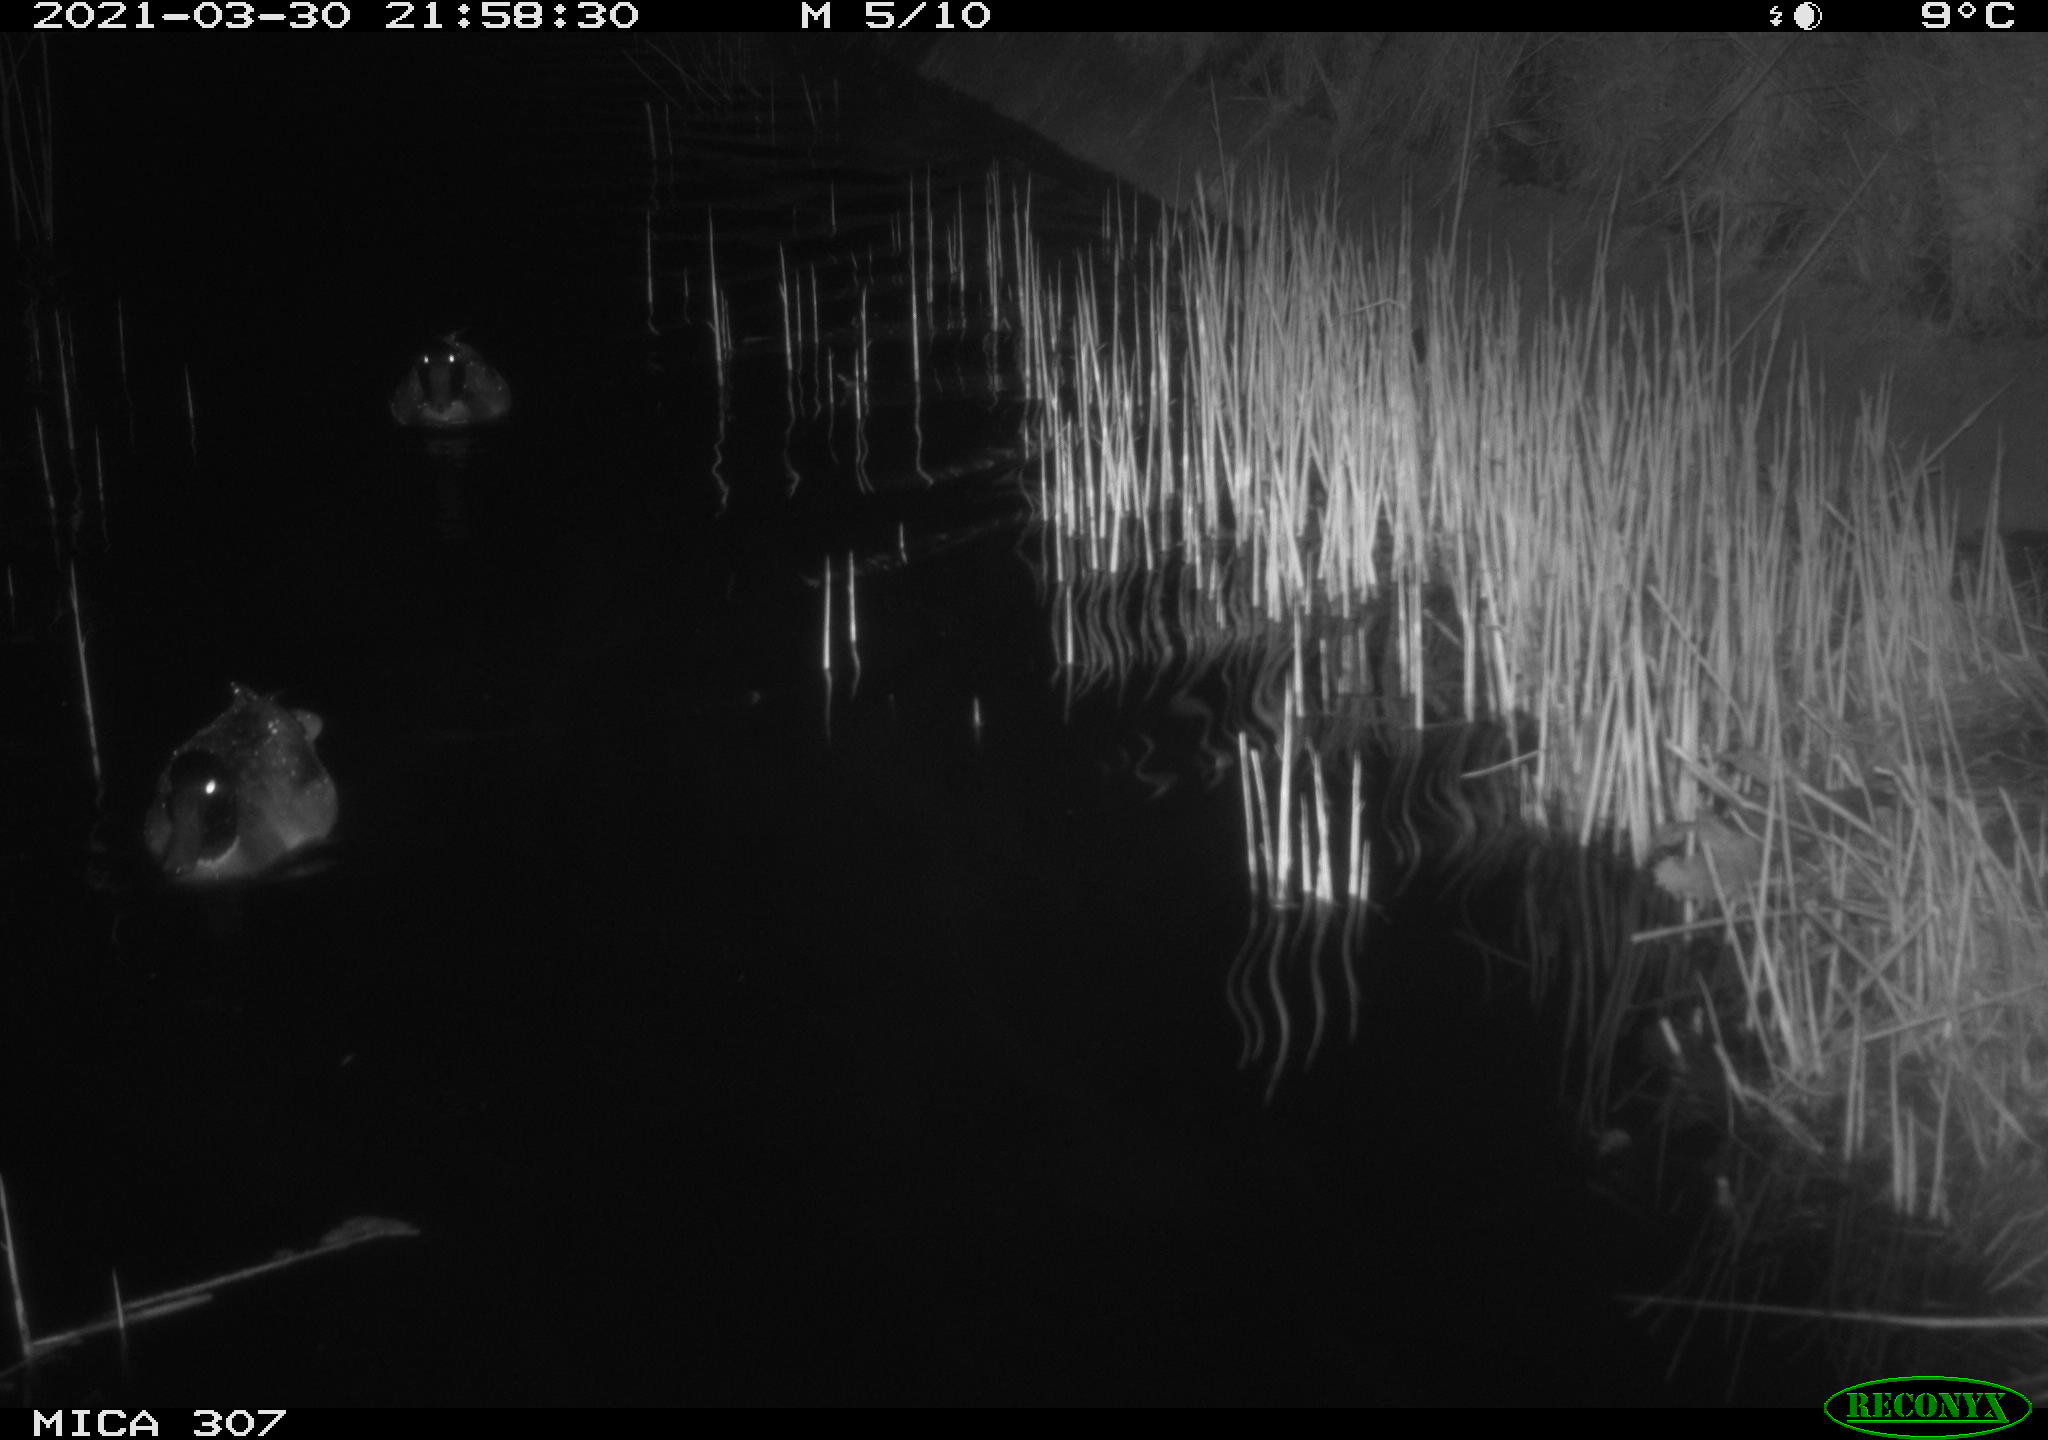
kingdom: Animalia
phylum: Chordata
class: Aves
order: Anseriformes
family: Anatidae
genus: Anas
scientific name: Anas platyrhynchos
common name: Mallard
